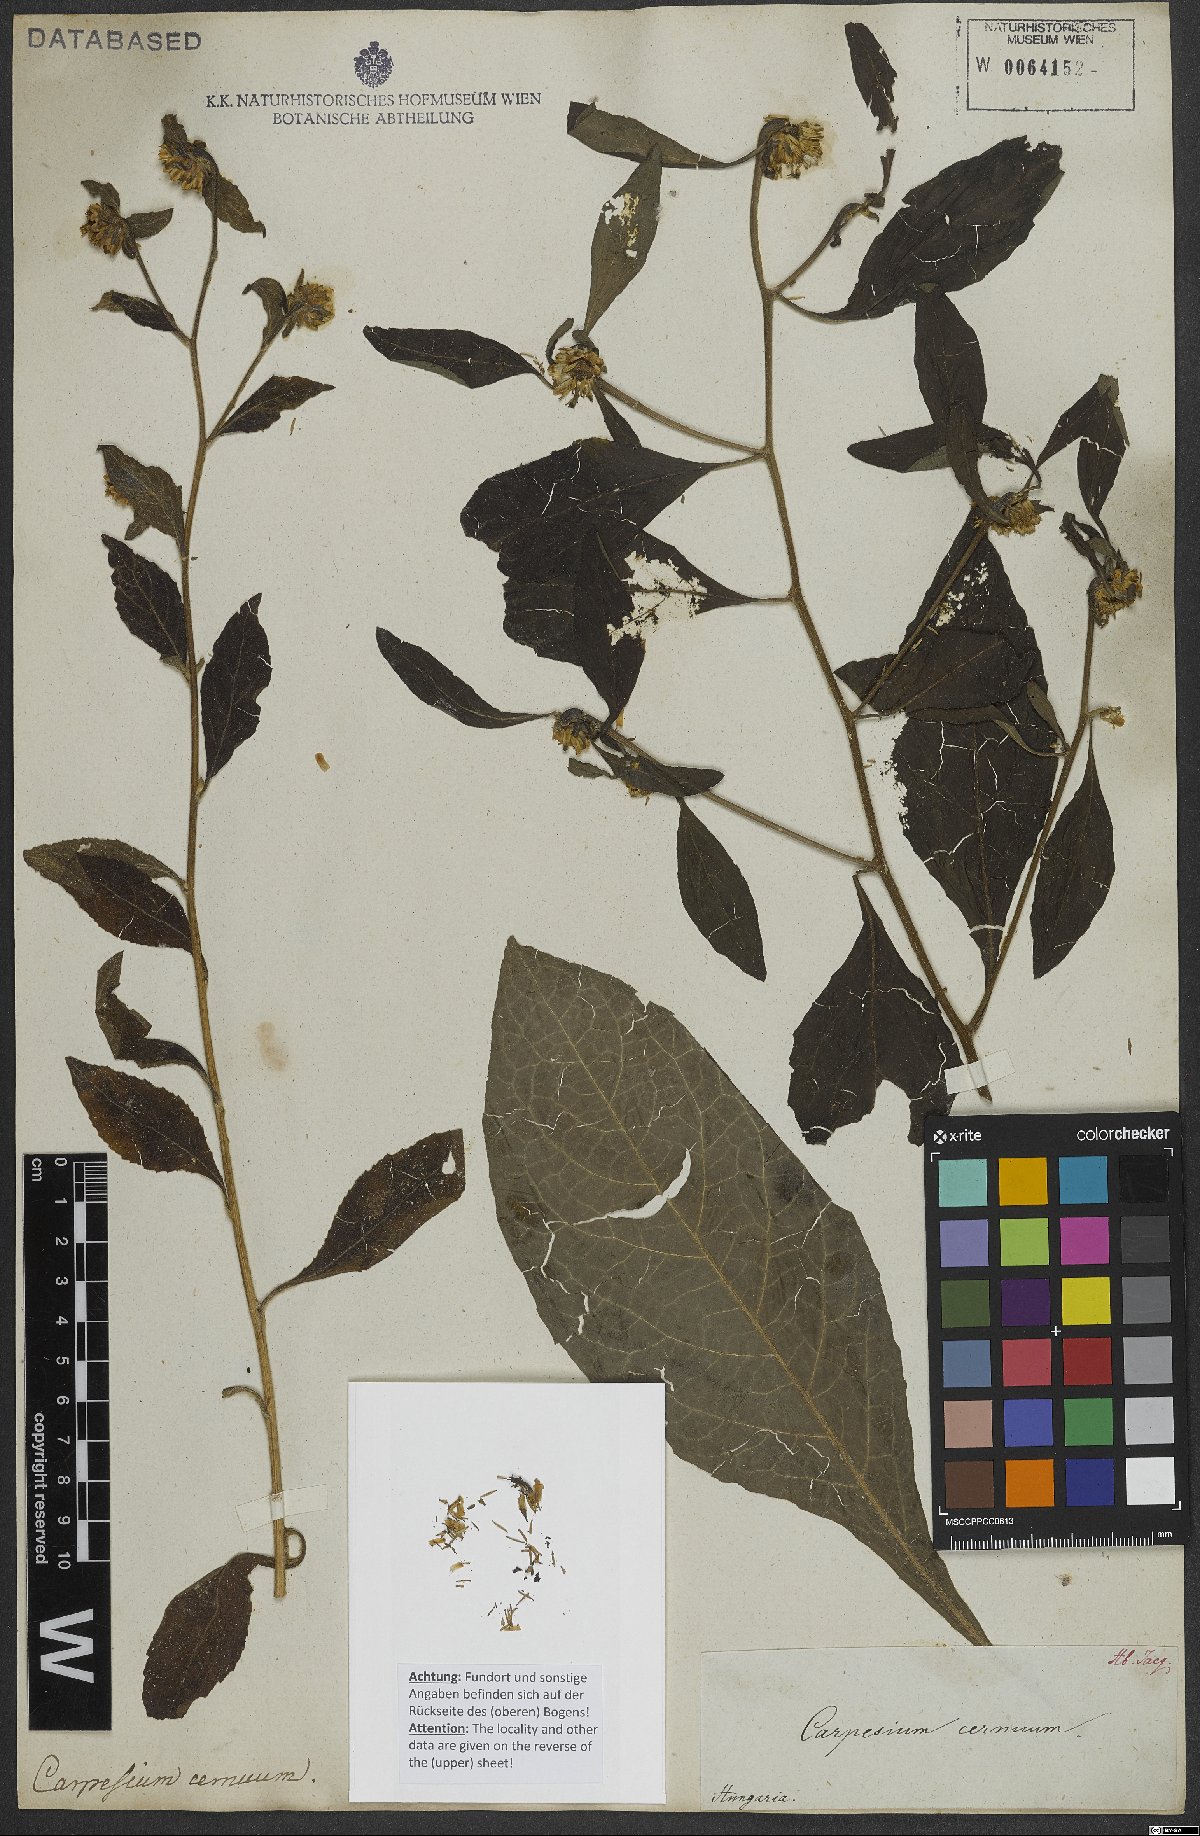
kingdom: Plantae
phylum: Tracheophyta
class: Magnoliopsida
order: Asterales
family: Asteraceae
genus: Carpesium
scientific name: Carpesium cernuum
